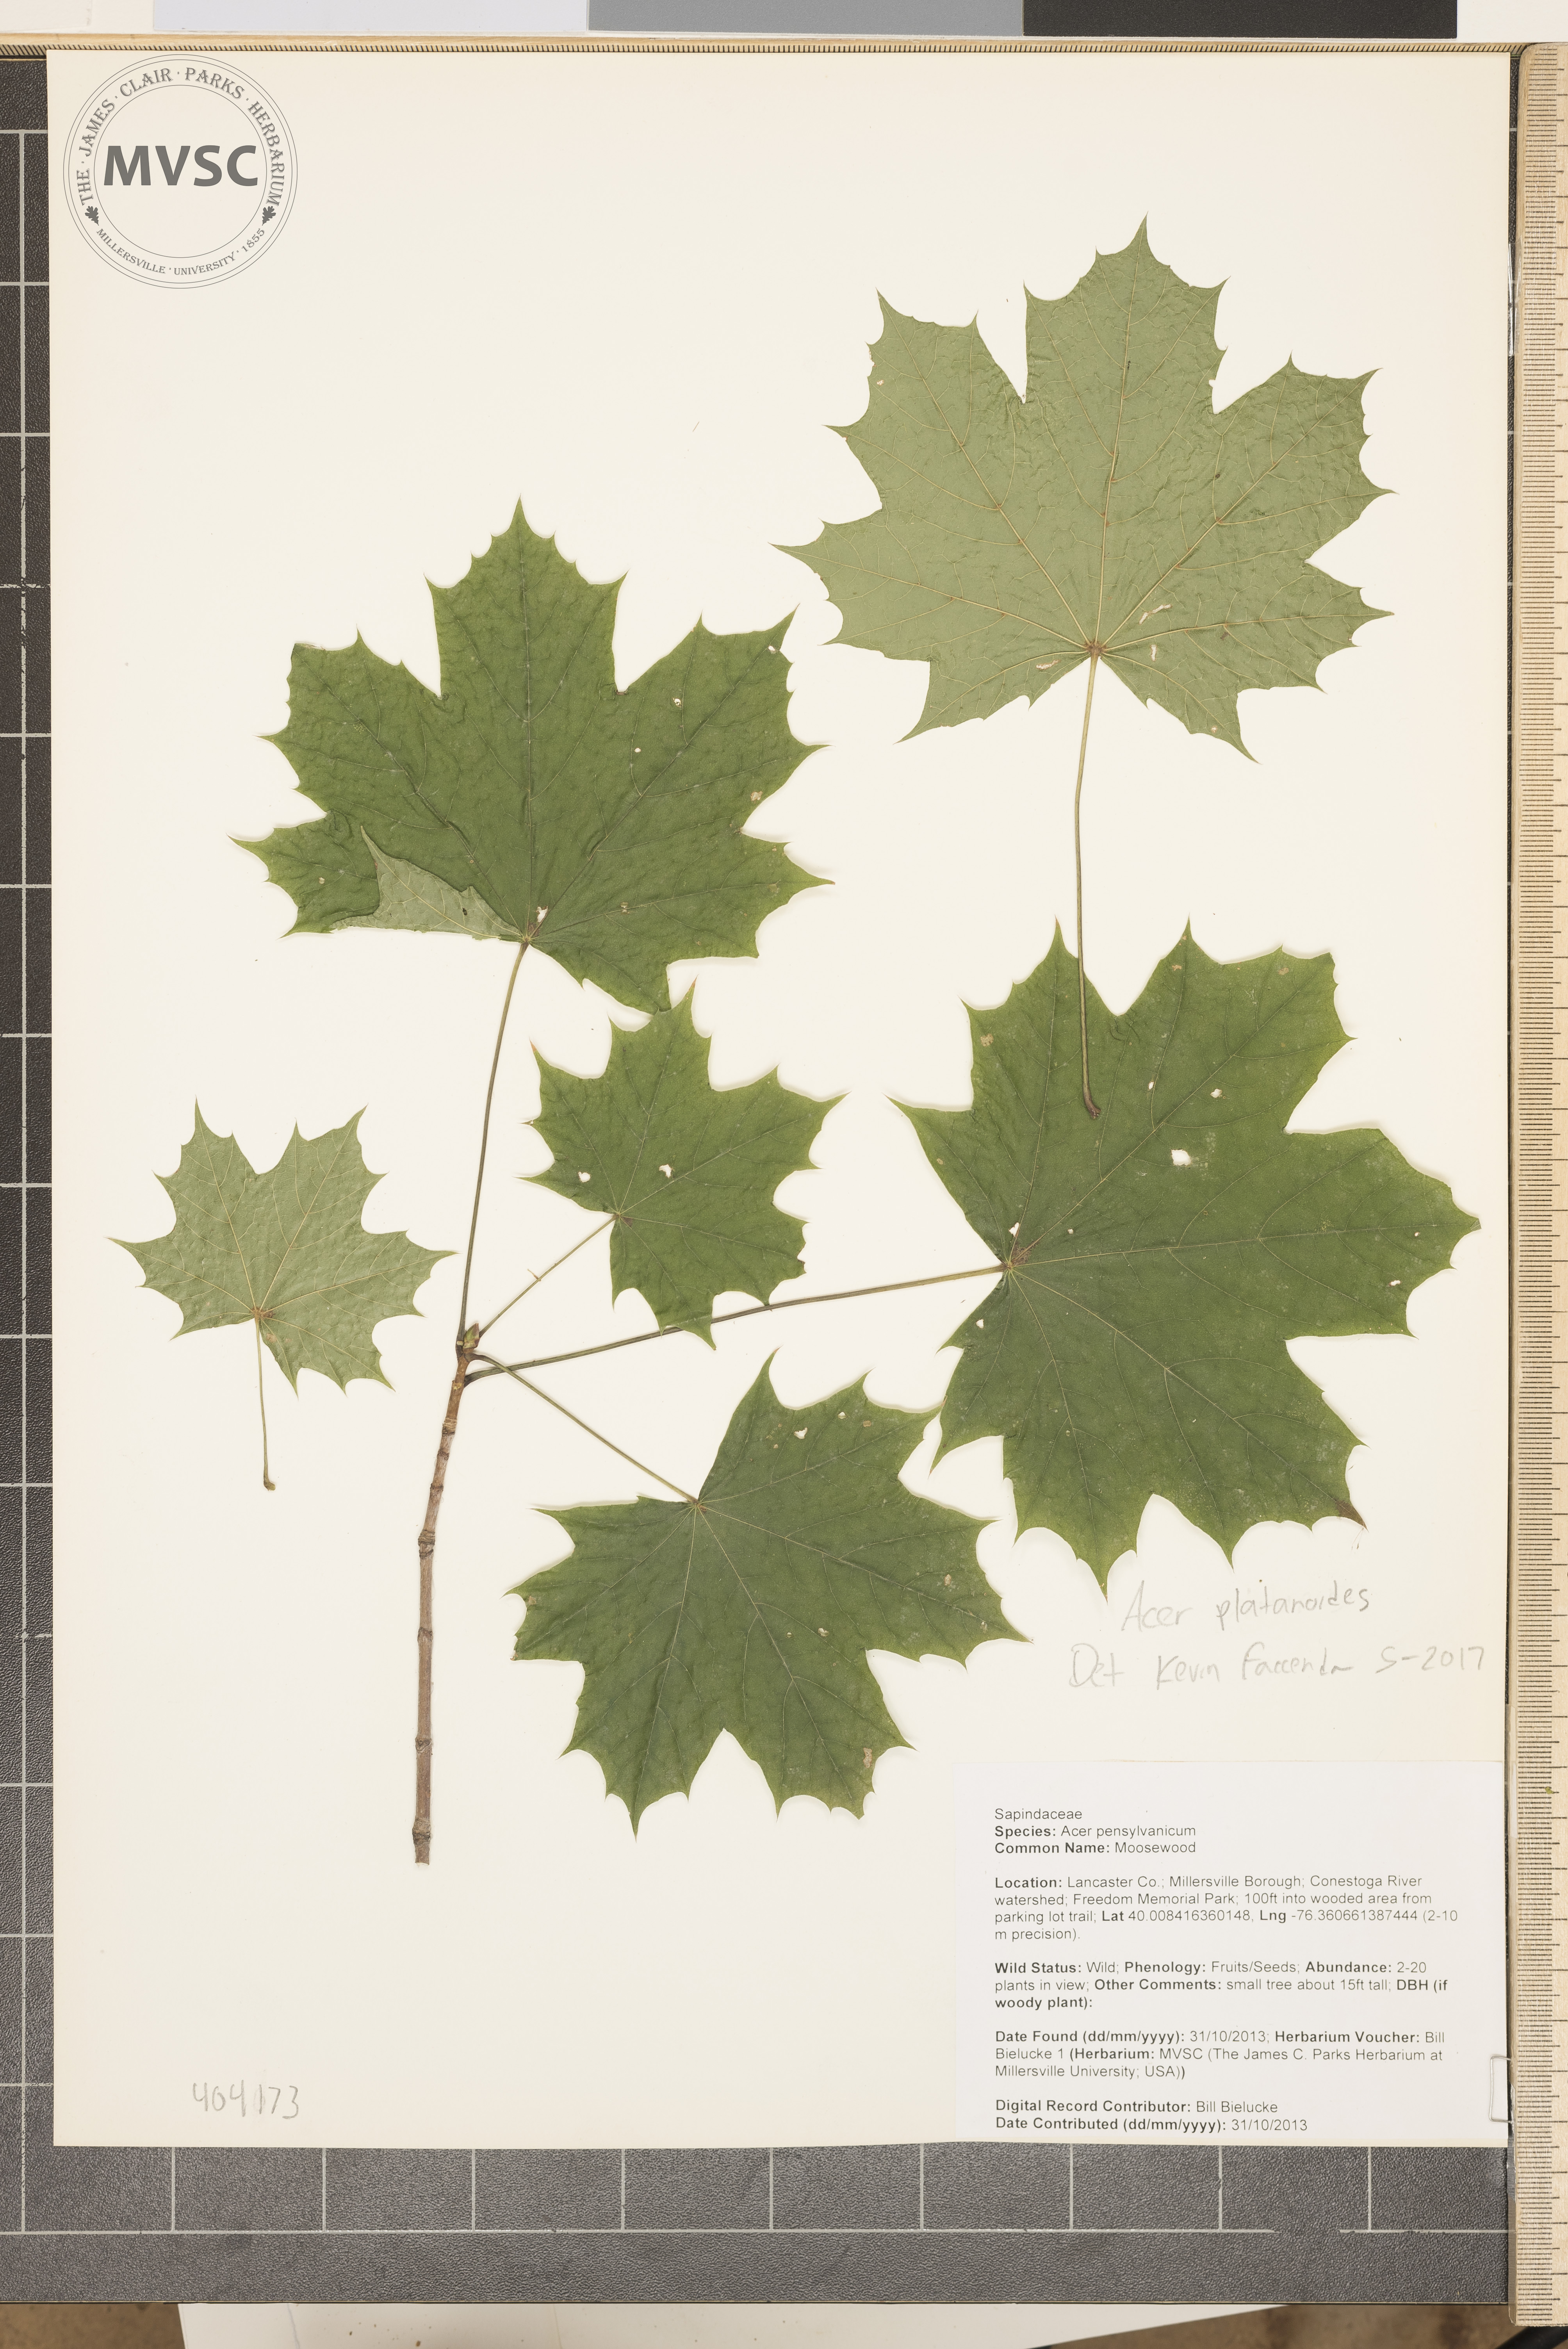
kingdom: Plantae
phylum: Tracheophyta
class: Magnoliopsida
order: Sapindales
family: Sapindaceae
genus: Acer
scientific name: Acer platanoides
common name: Norway maple
